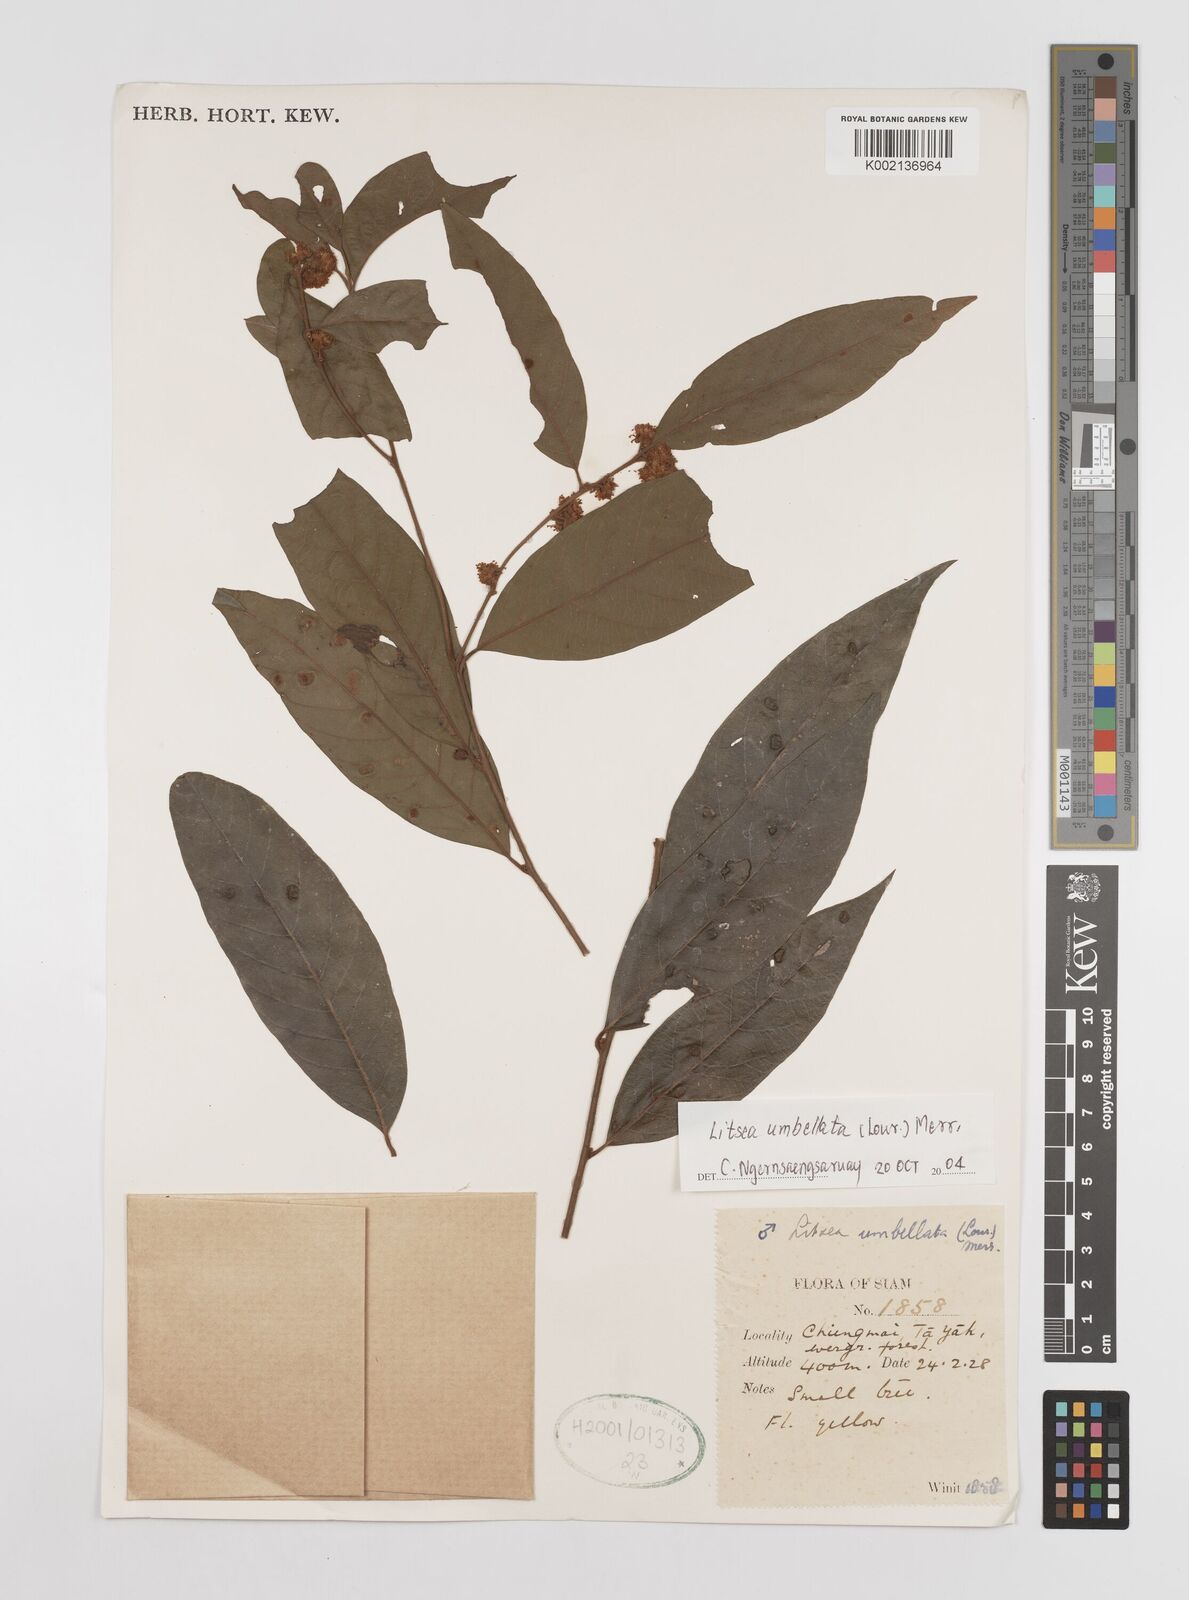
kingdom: Plantae
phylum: Tracheophyta
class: Magnoliopsida
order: Laurales
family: Lauraceae
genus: Litsea
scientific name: Litsea umbellata
